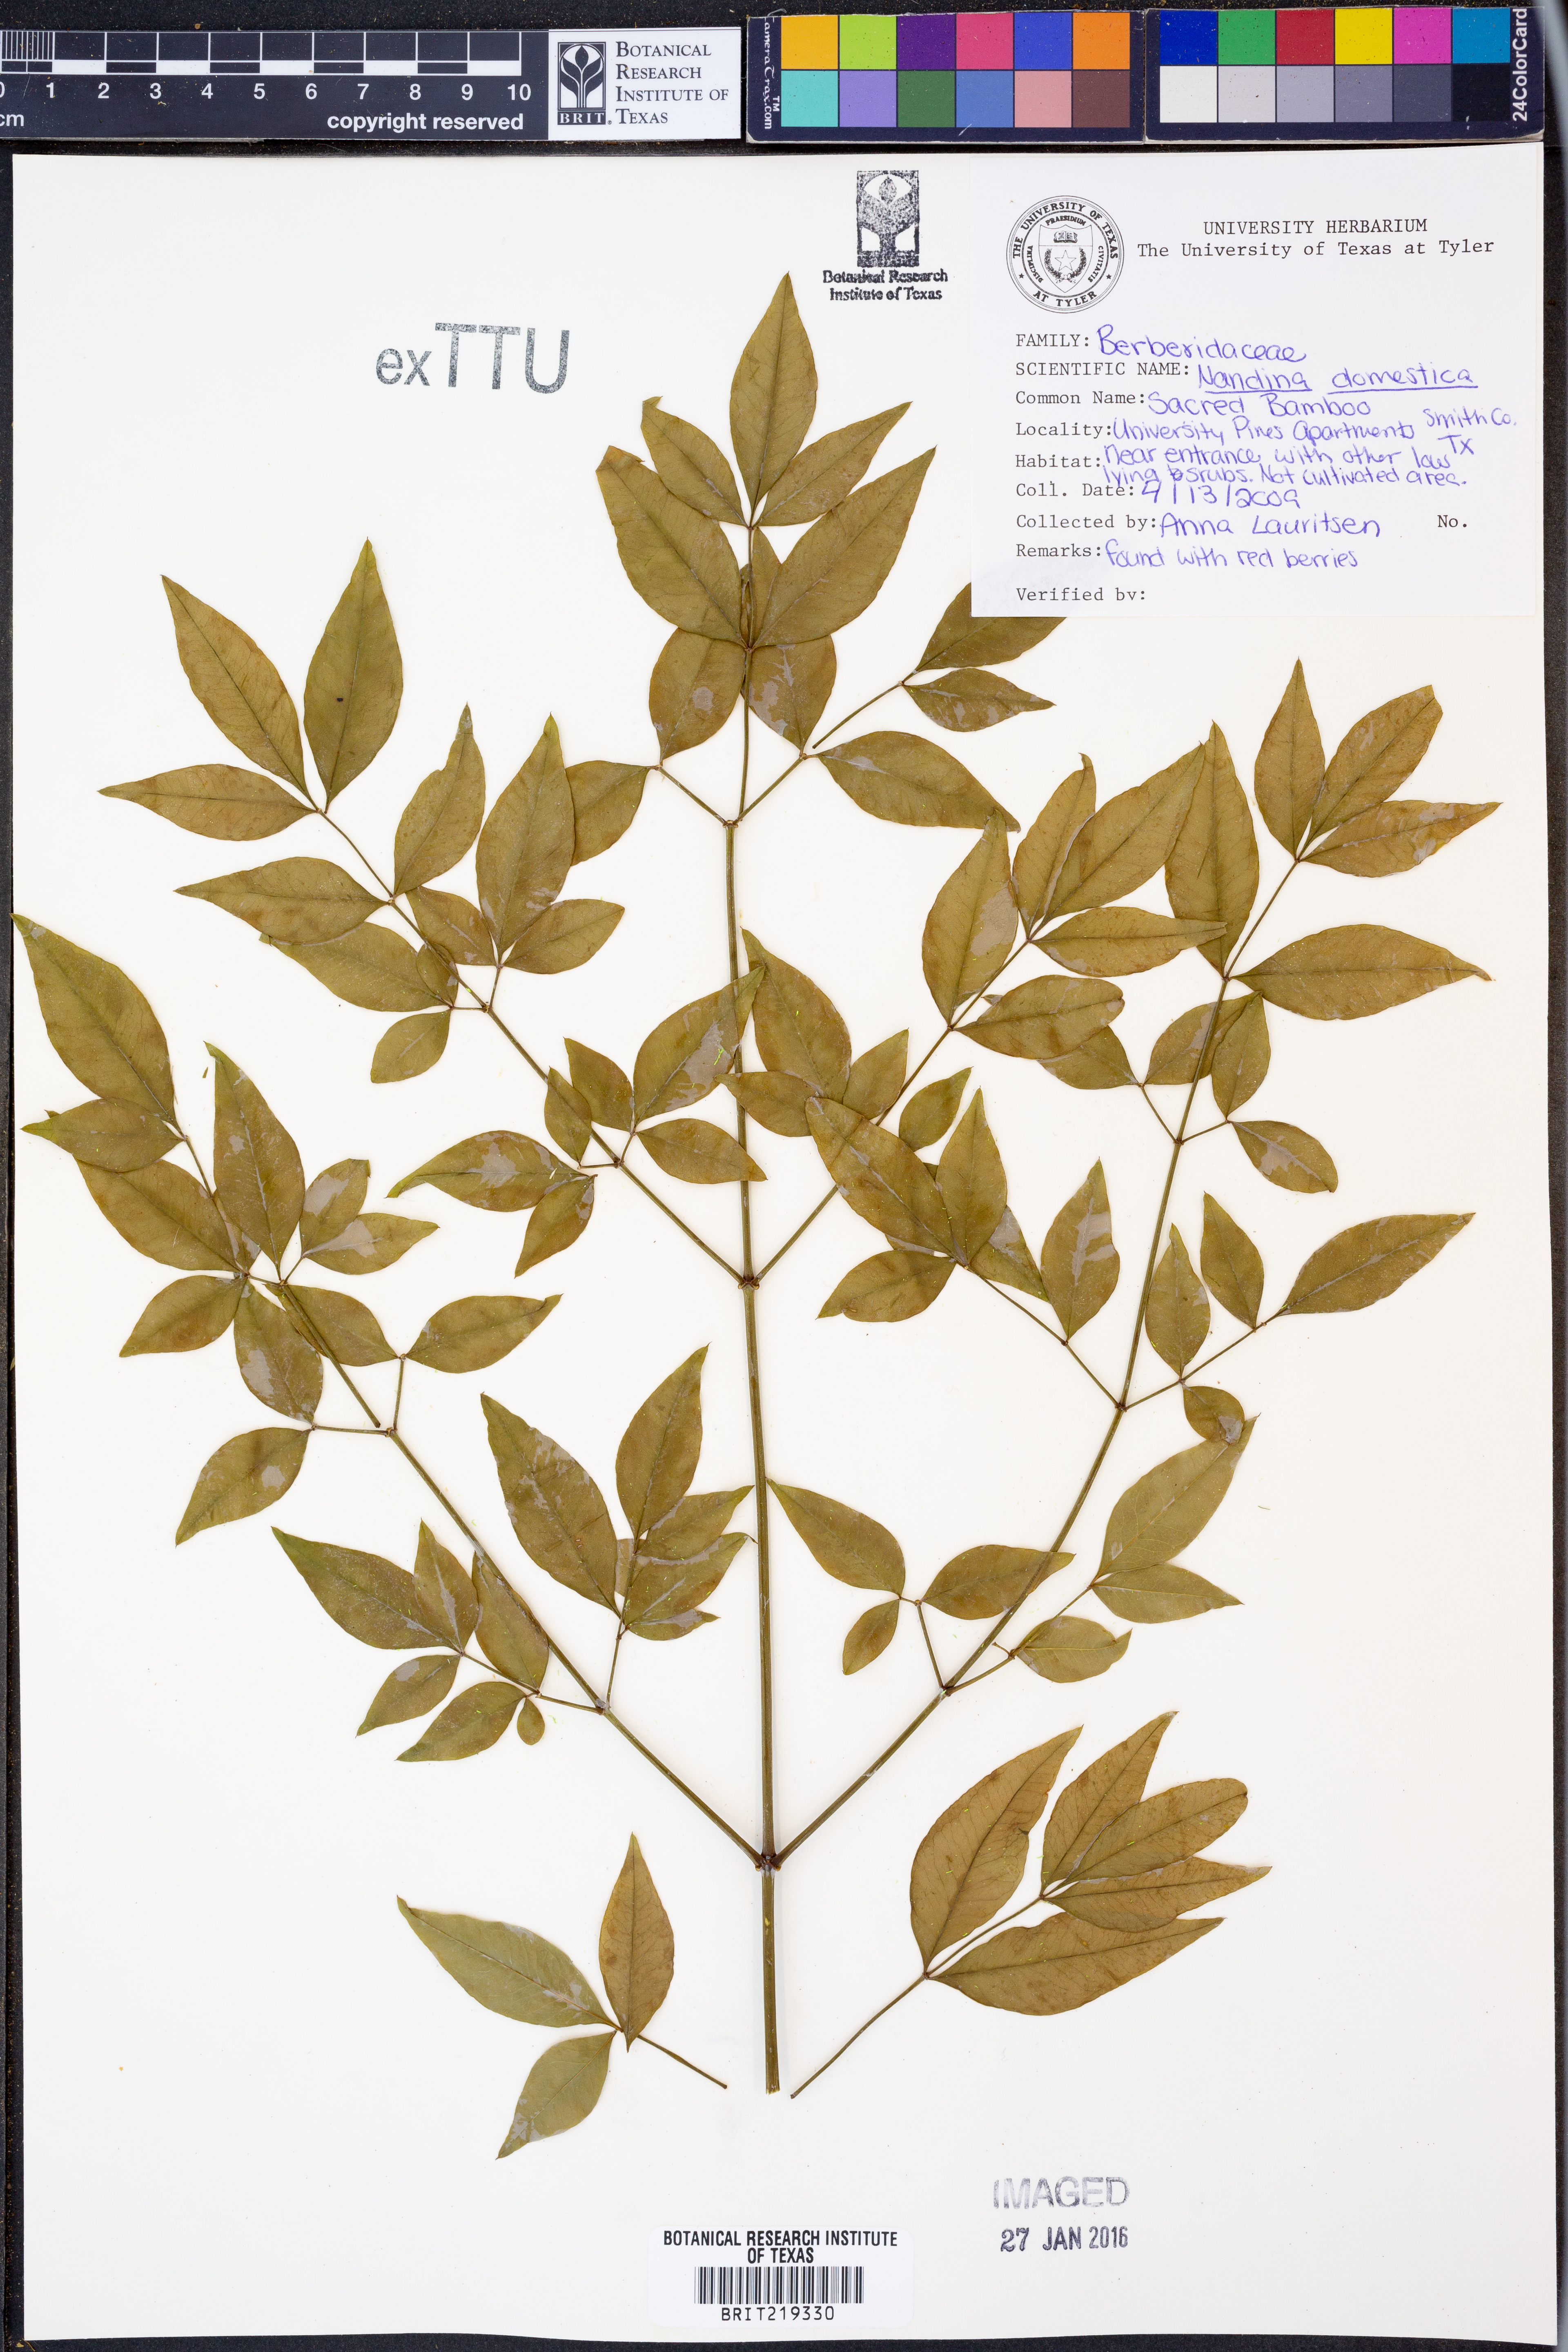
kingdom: Plantae
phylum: Tracheophyta
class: Magnoliopsida
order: Ranunculales
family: Berberidaceae
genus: Nandina
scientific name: Nandina domestica
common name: Sacred bamboo
